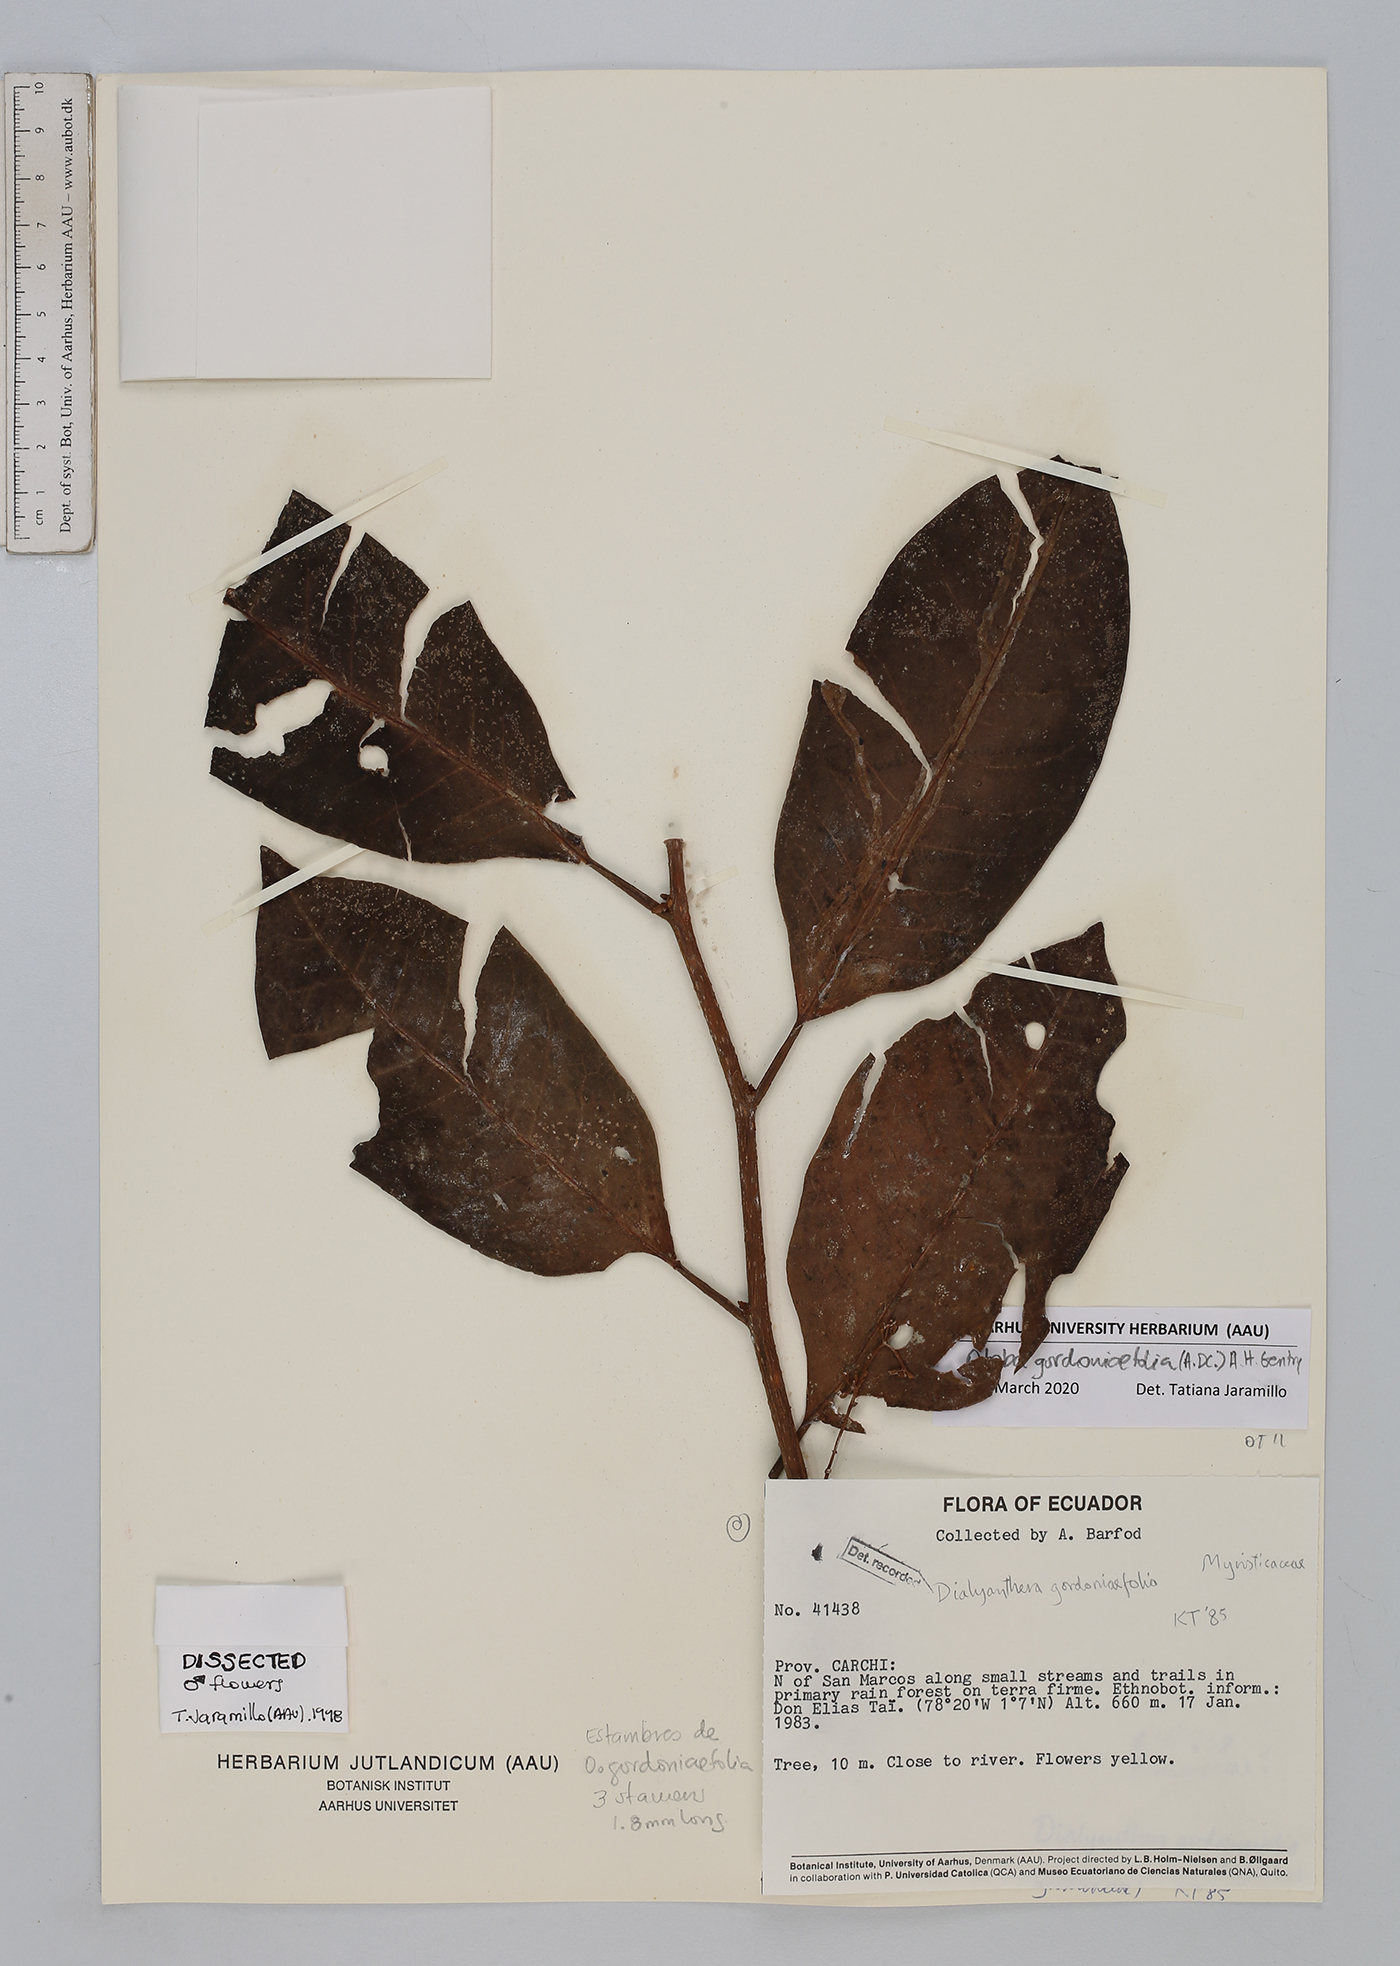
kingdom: Plantae
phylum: Tracheophyta
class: Magnoliopsida
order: Magnoliales
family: Myristicaceae
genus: Otoba
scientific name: Otoba gordoniifolia
